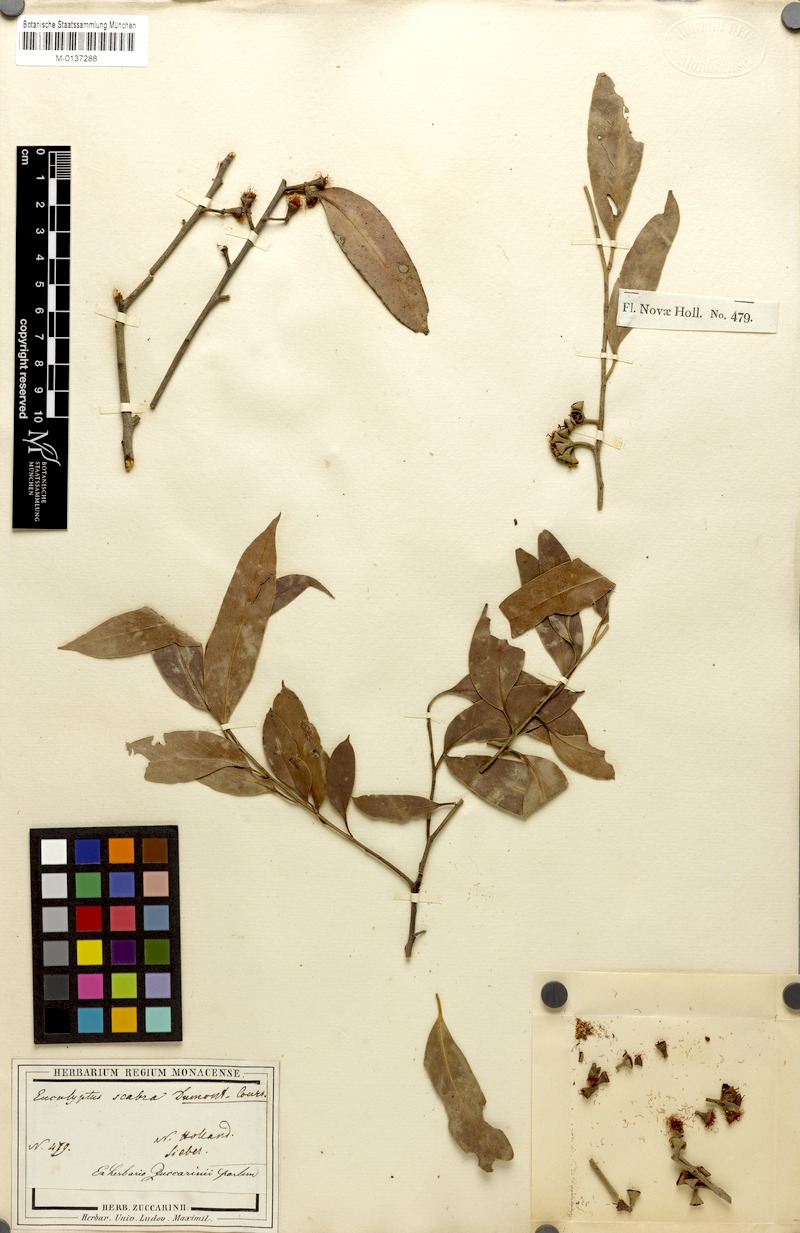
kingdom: Plantae
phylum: Tracheophyta
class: Magnoliopsida
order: Myrtales
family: Myrtaceae
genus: Eucalyptus
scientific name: Eucalyptus eugenioides
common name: Narrow-leaved-stringybark
